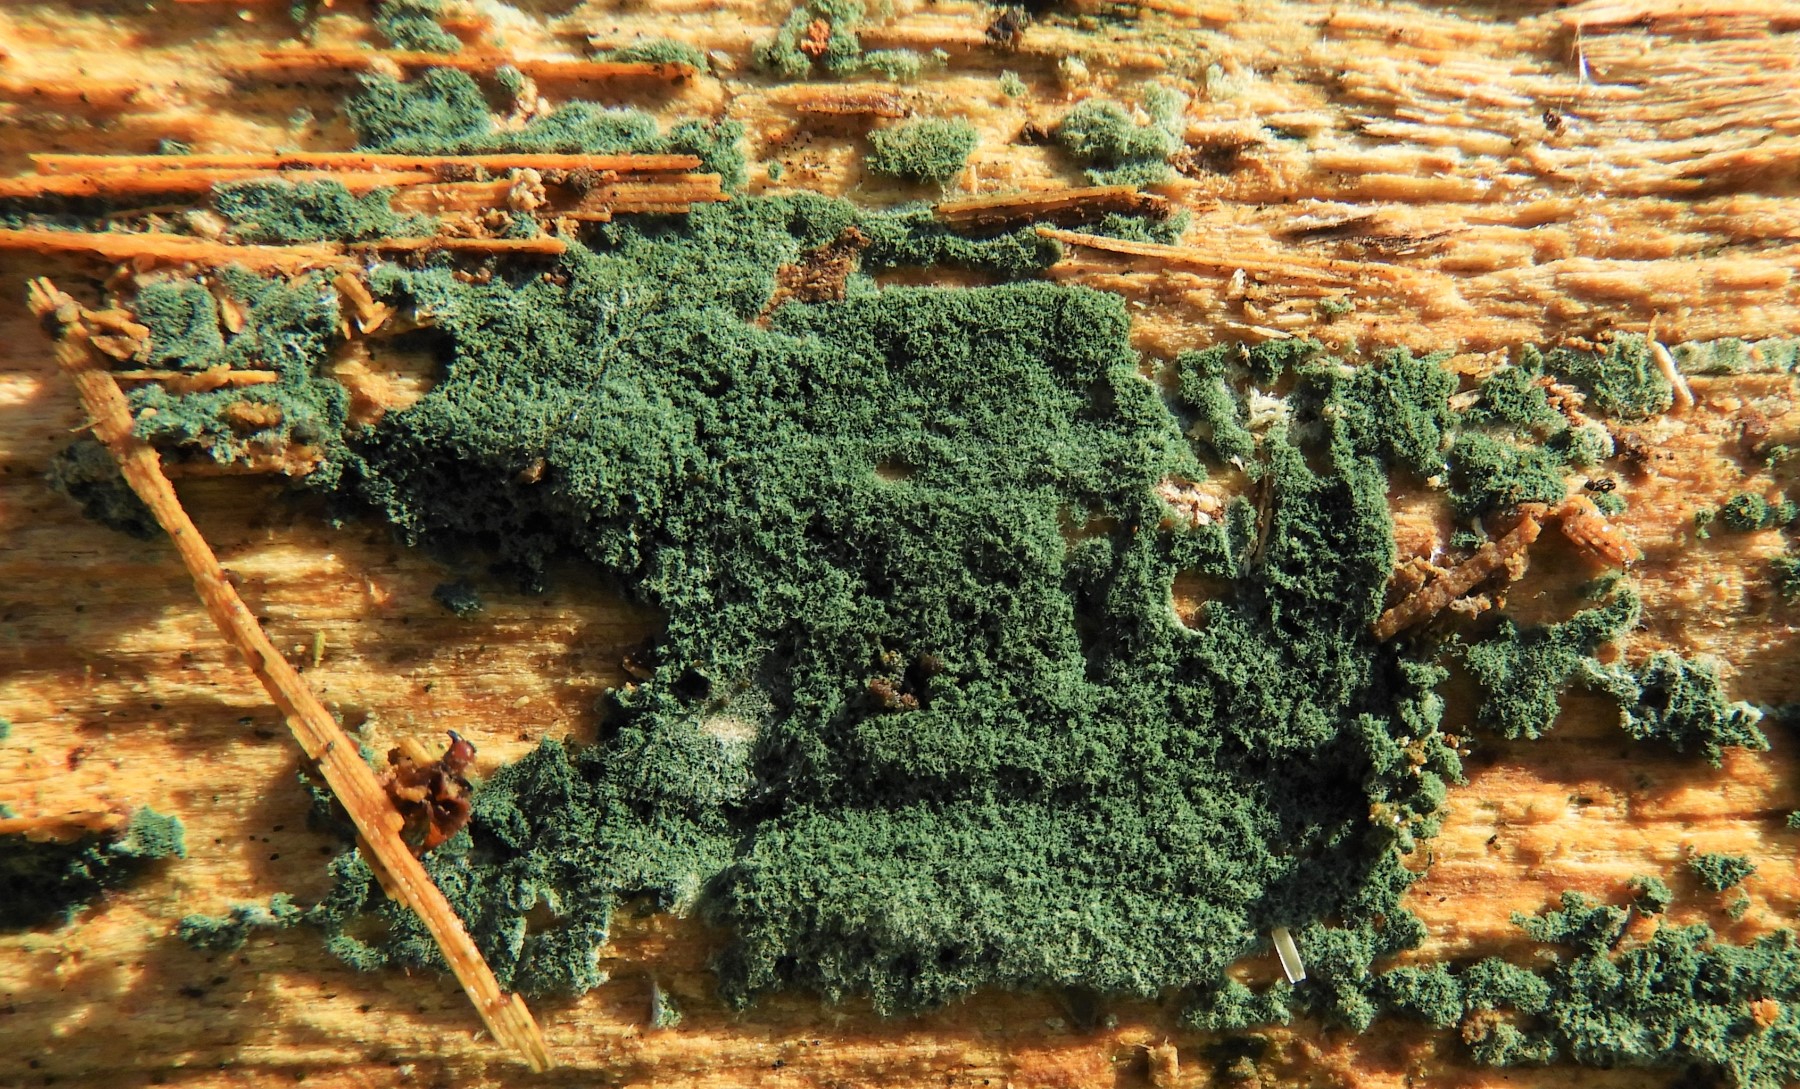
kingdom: Fungi
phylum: Ascomycota
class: Sordariomycetes
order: Hypocreales
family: Hypocreaceae
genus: Trichoderma
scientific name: Trichoderma
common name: kødkerne
